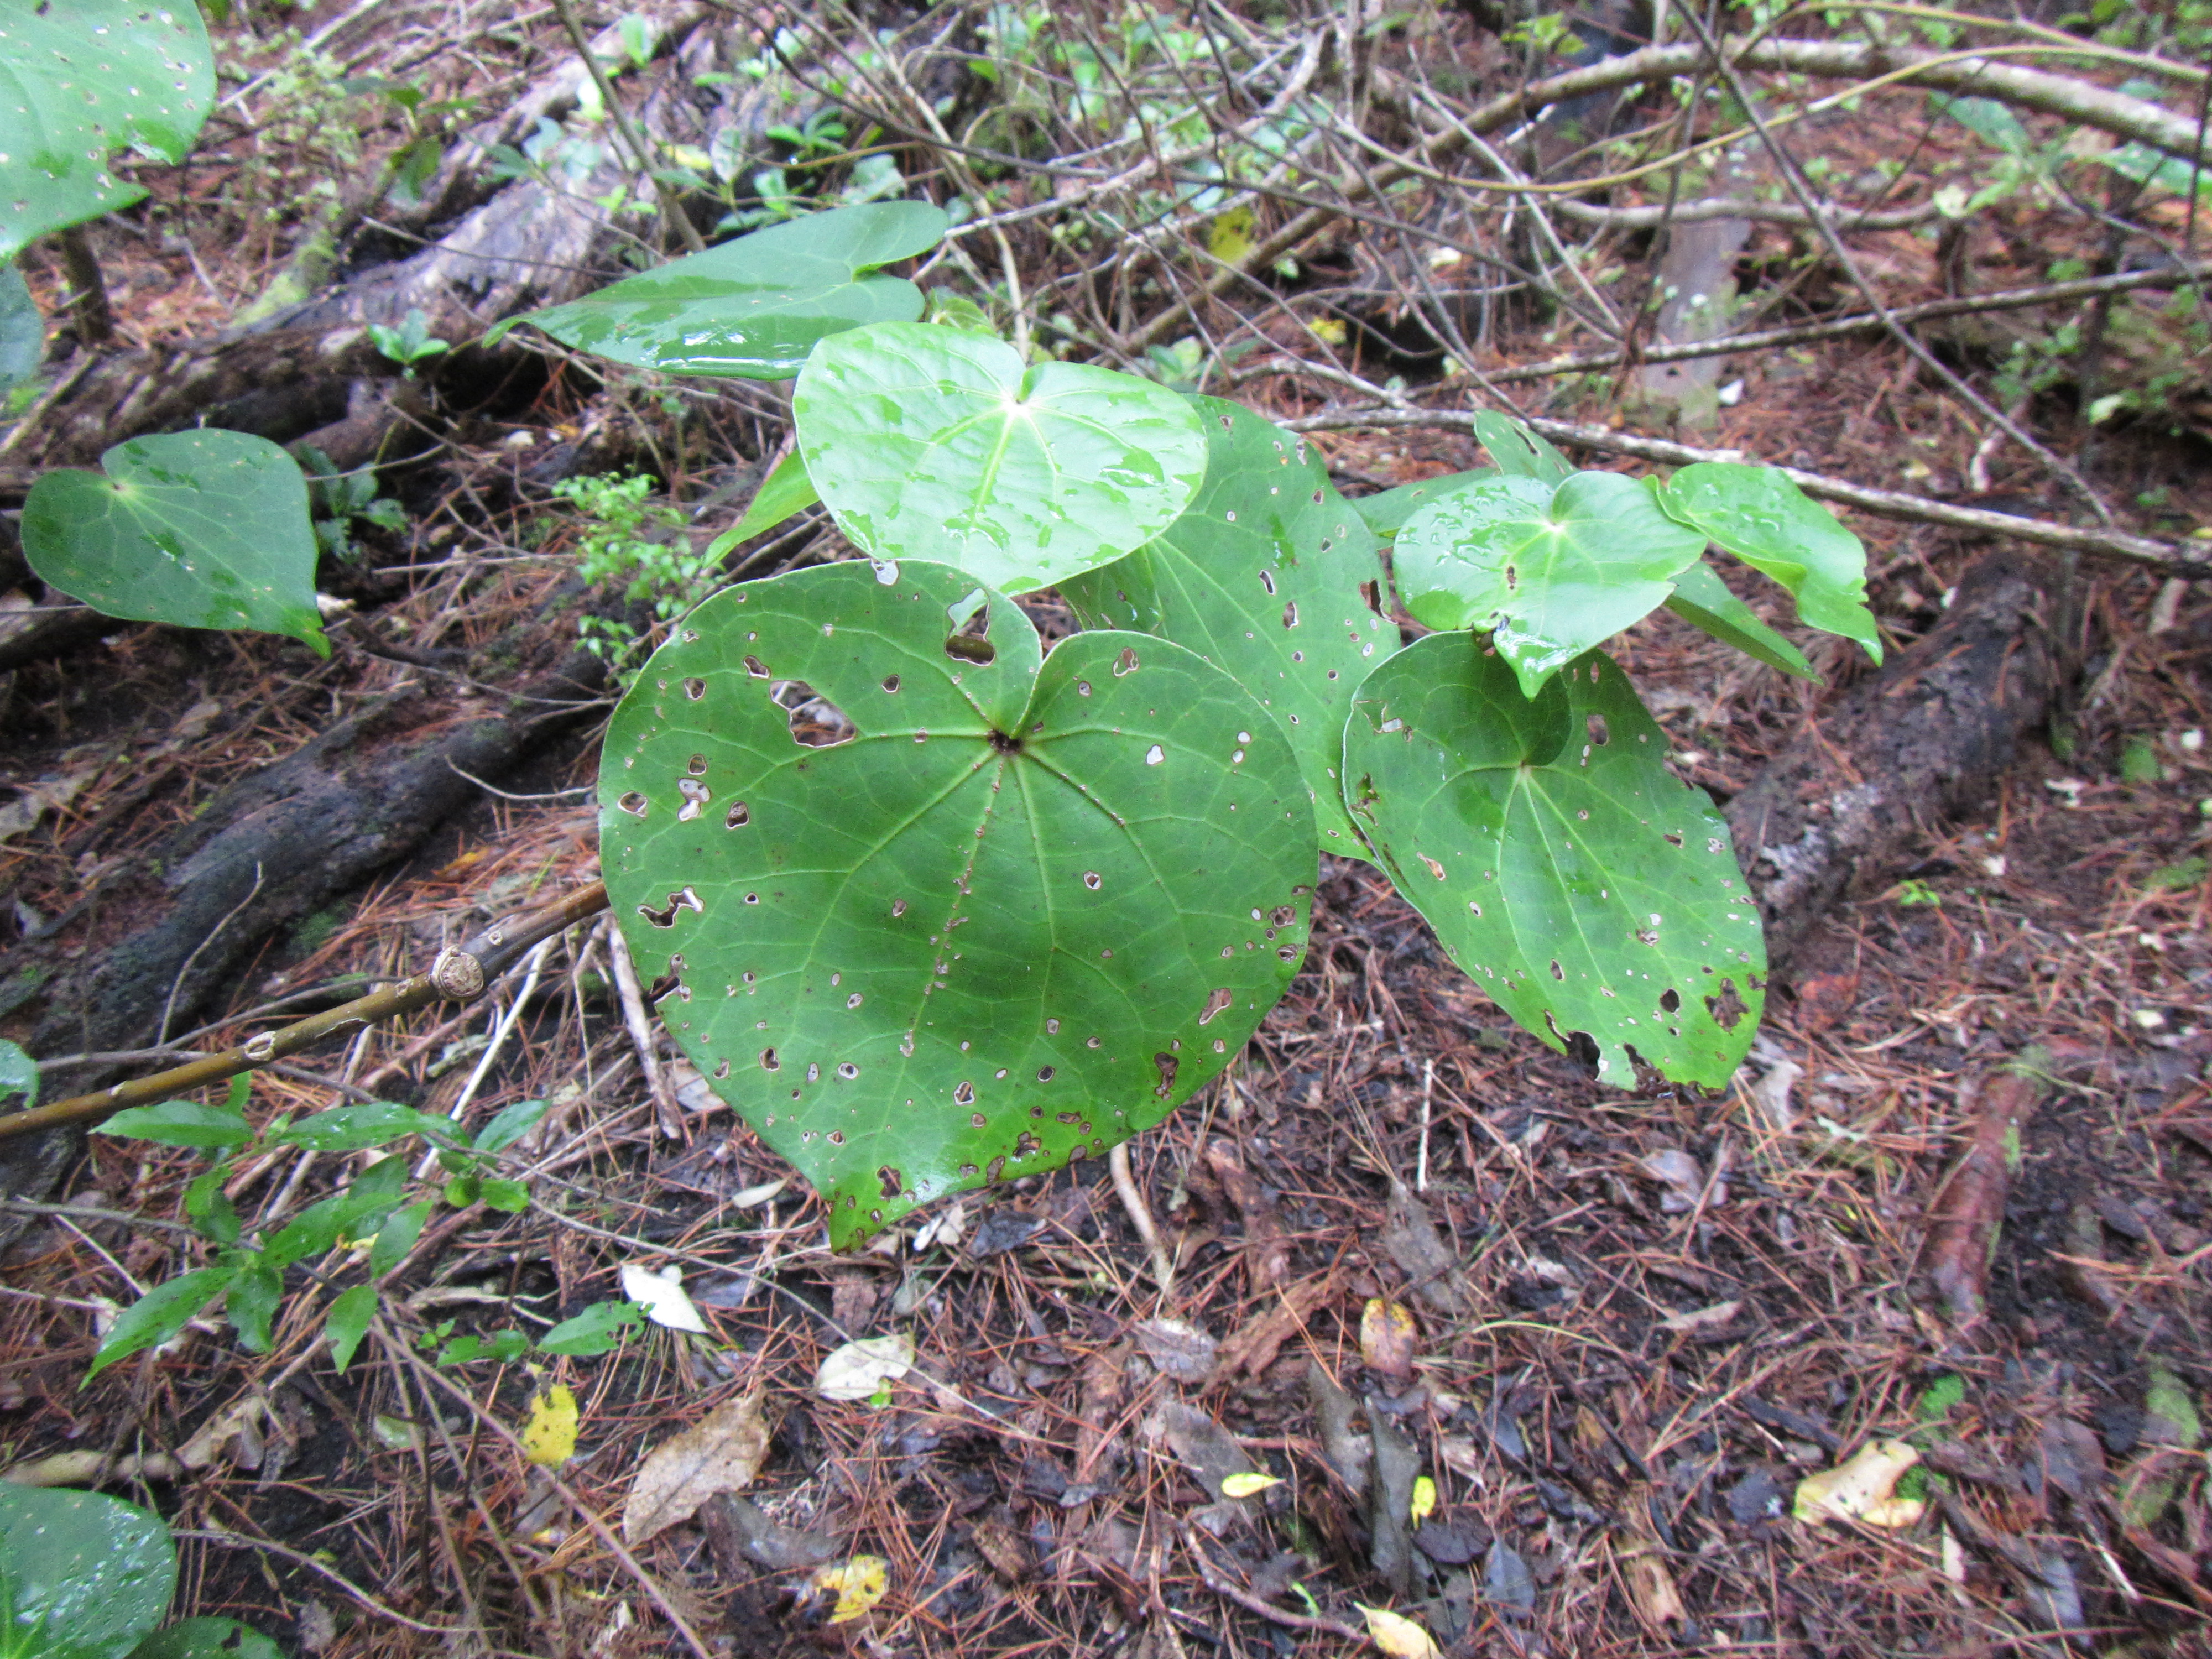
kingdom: Plantae
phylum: Tracheophyta
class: Liliopsida
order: Commelinales
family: Commelinaceae
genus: Tradescantia
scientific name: Tradescantia fluminensis
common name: Wandering-jew
